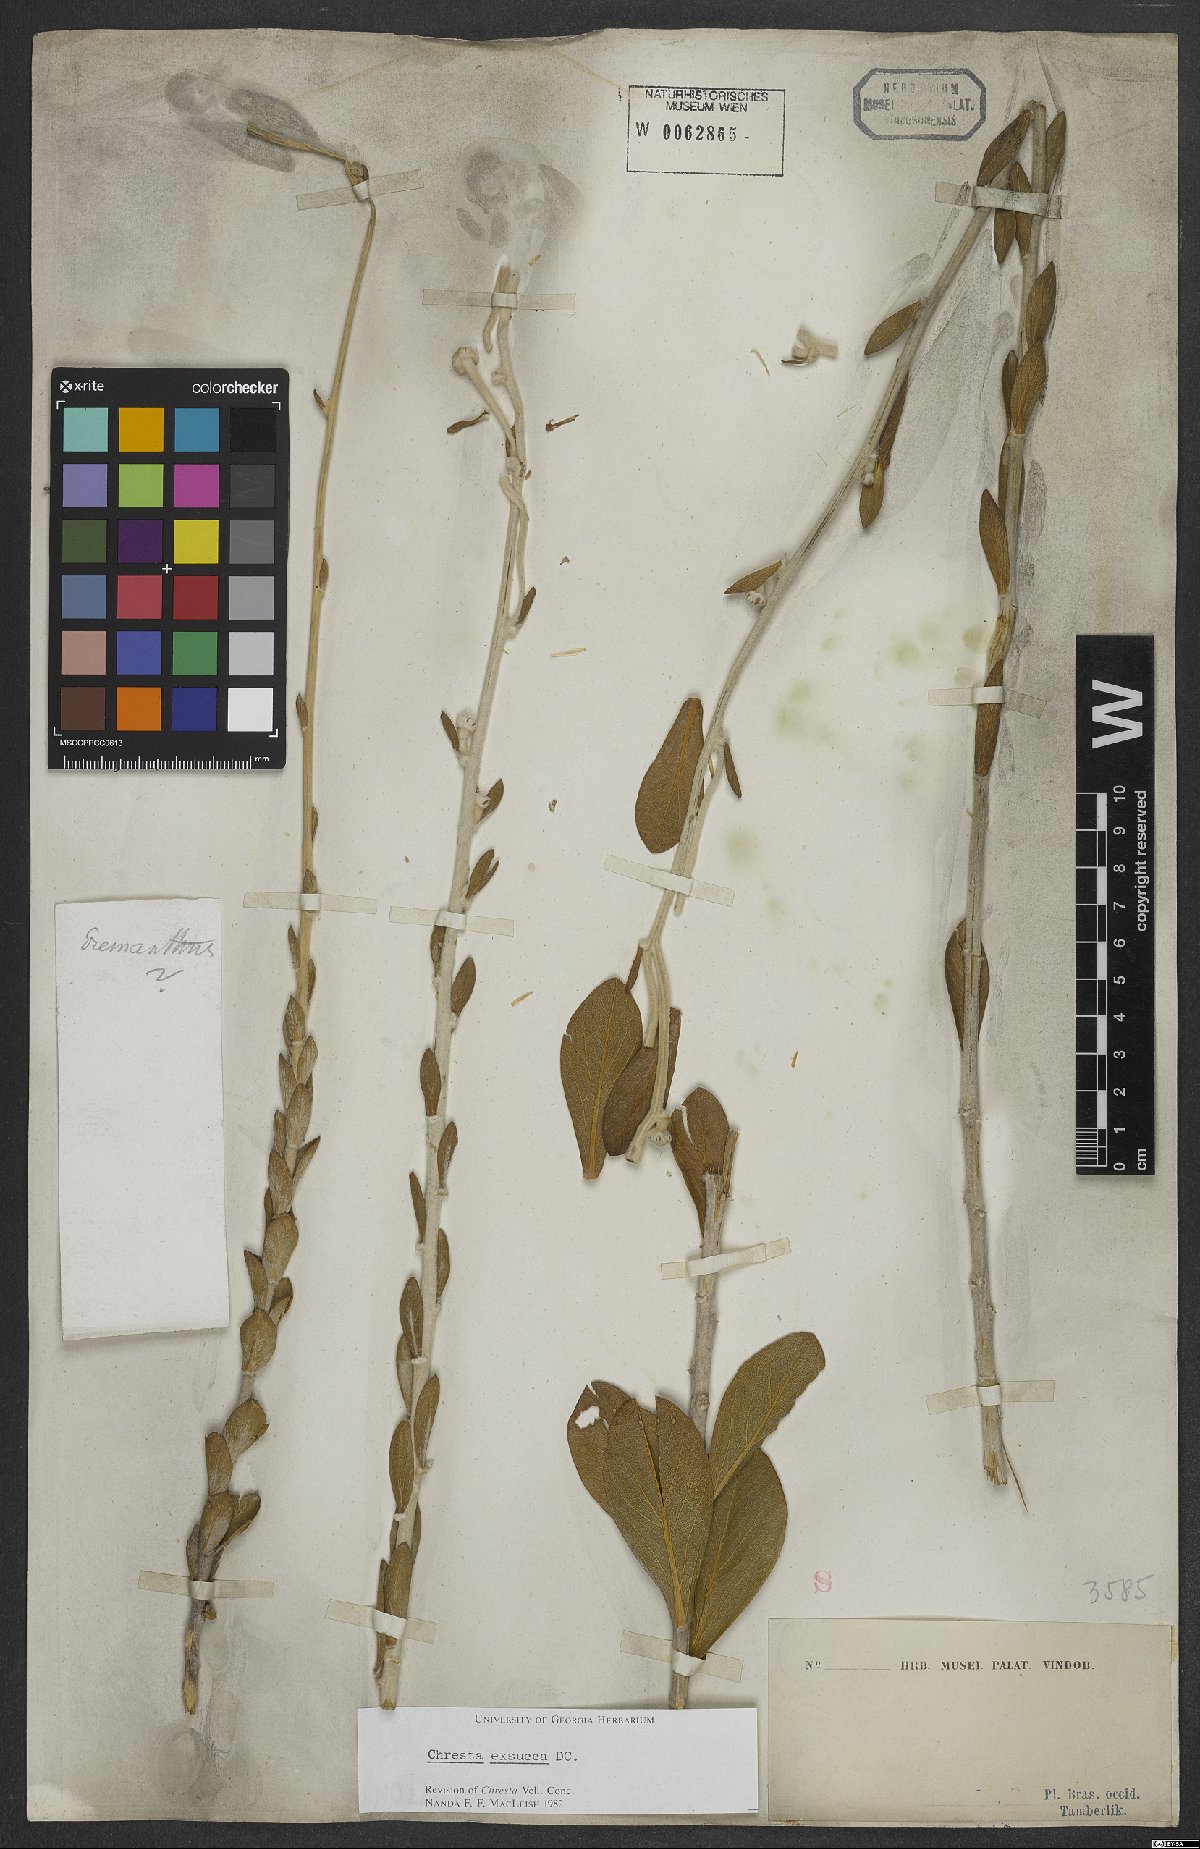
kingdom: Plantae
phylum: Tracheophyta
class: Magnoliopsida
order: Asterales
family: Asteraceae
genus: Chresta
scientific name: Chresta exsucca
